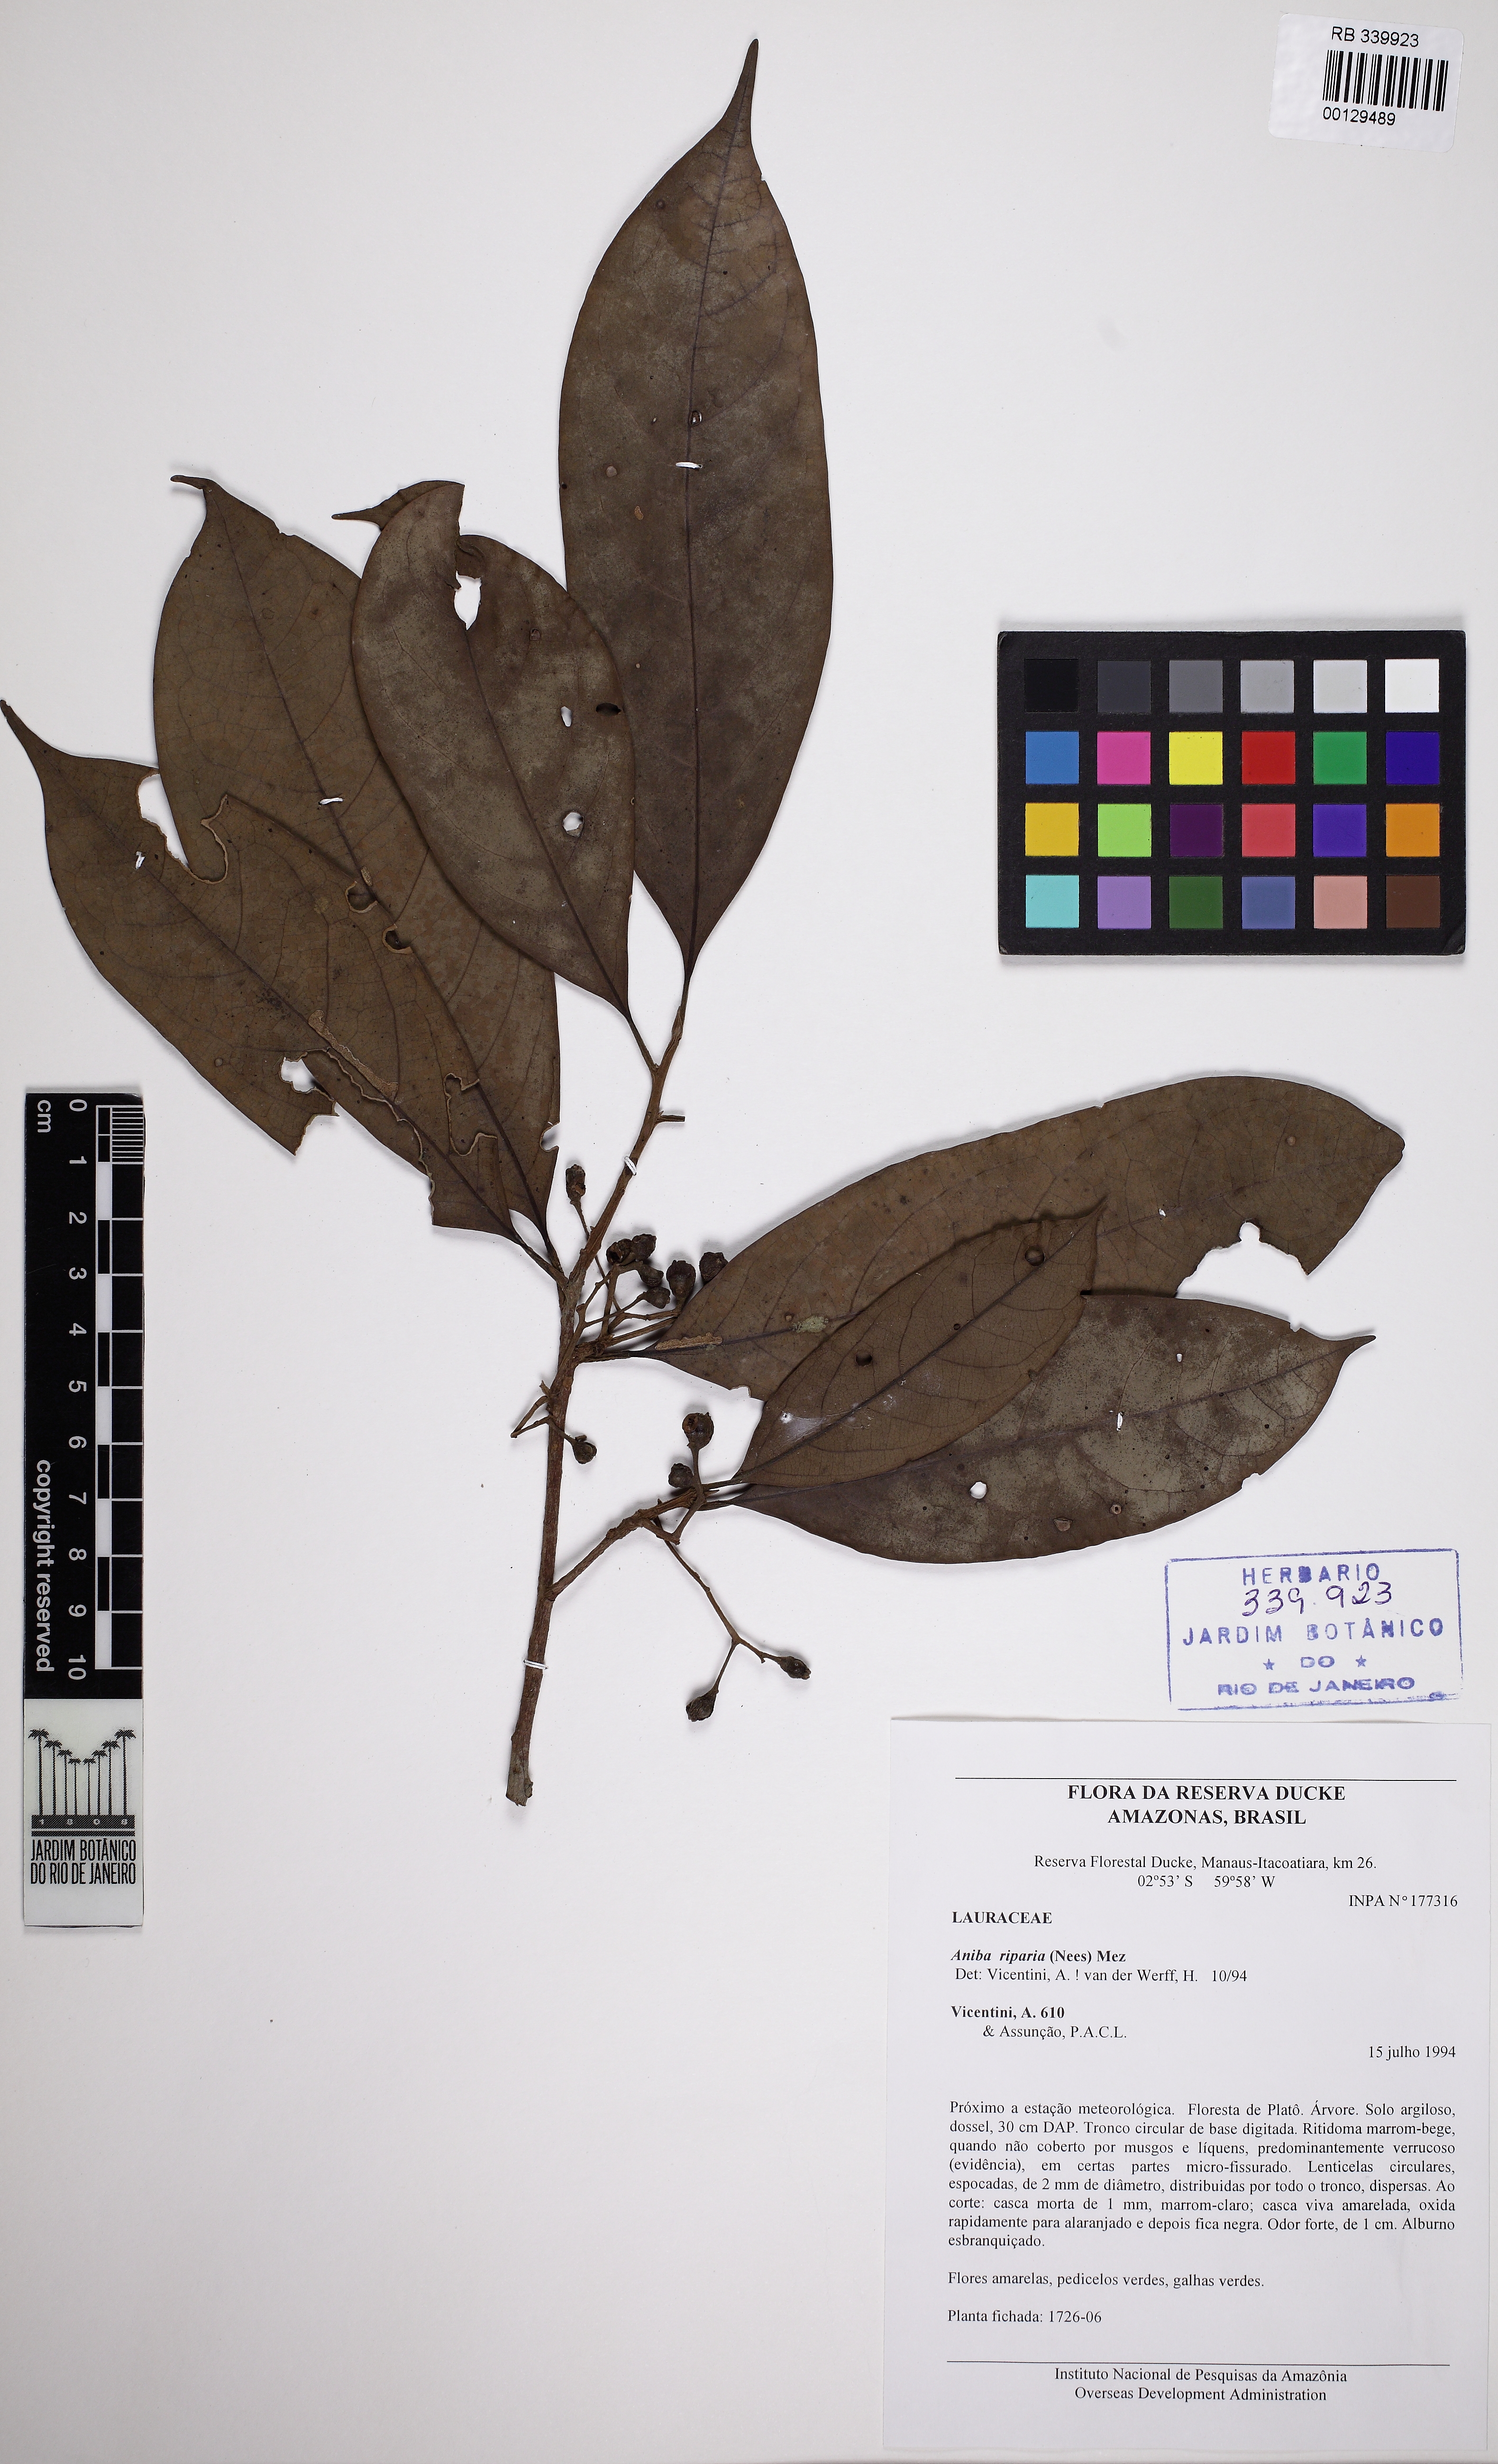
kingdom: Plantae
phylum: Tracheophyta
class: Magnoliopsida
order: Laurales
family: Lauraceae
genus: Aniba
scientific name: Aniba riparia
